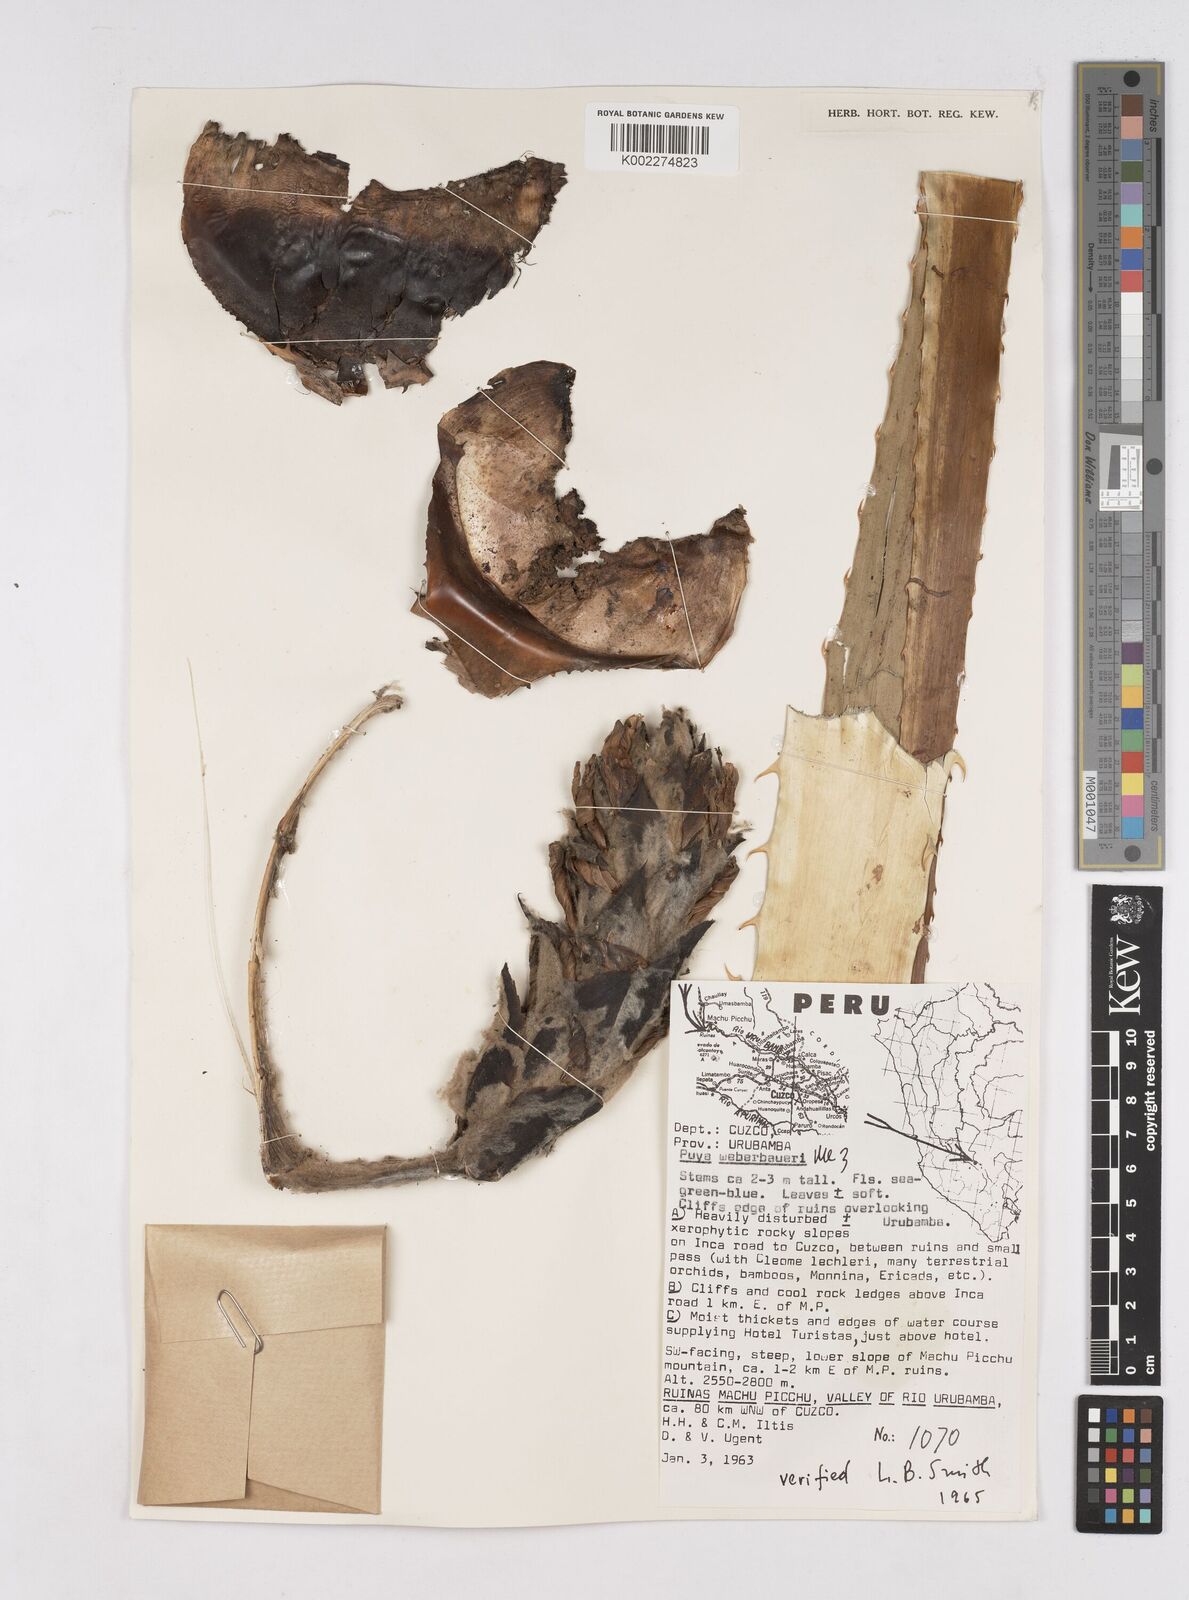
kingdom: Plantae
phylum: Tracheophyta
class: Liliopsida
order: Poales
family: Bromeliaceae
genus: Puya
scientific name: Puya weberbaueri
